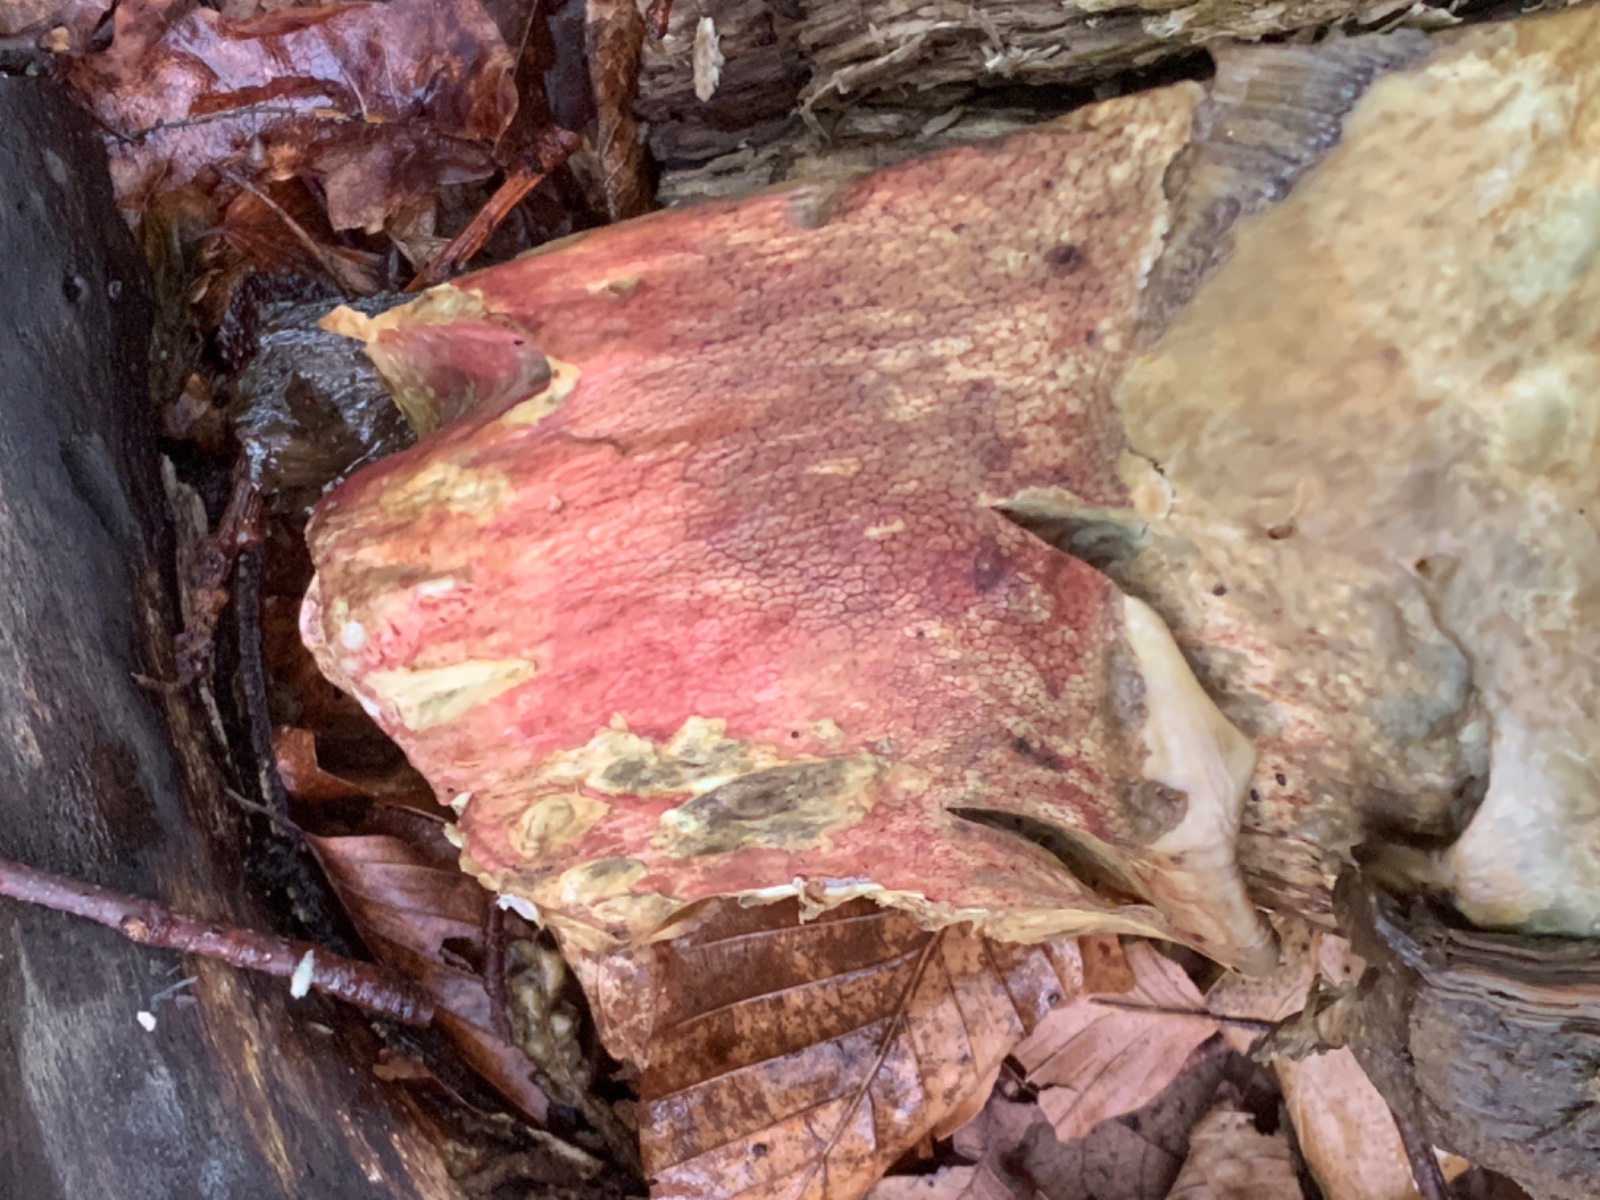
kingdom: Fungi
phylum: Basidiomycota
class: Agaricomycetes
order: Boletales
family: Boletaceae
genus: Rubroboletus
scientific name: Rubroboletus satanas
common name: Satans rørhat
